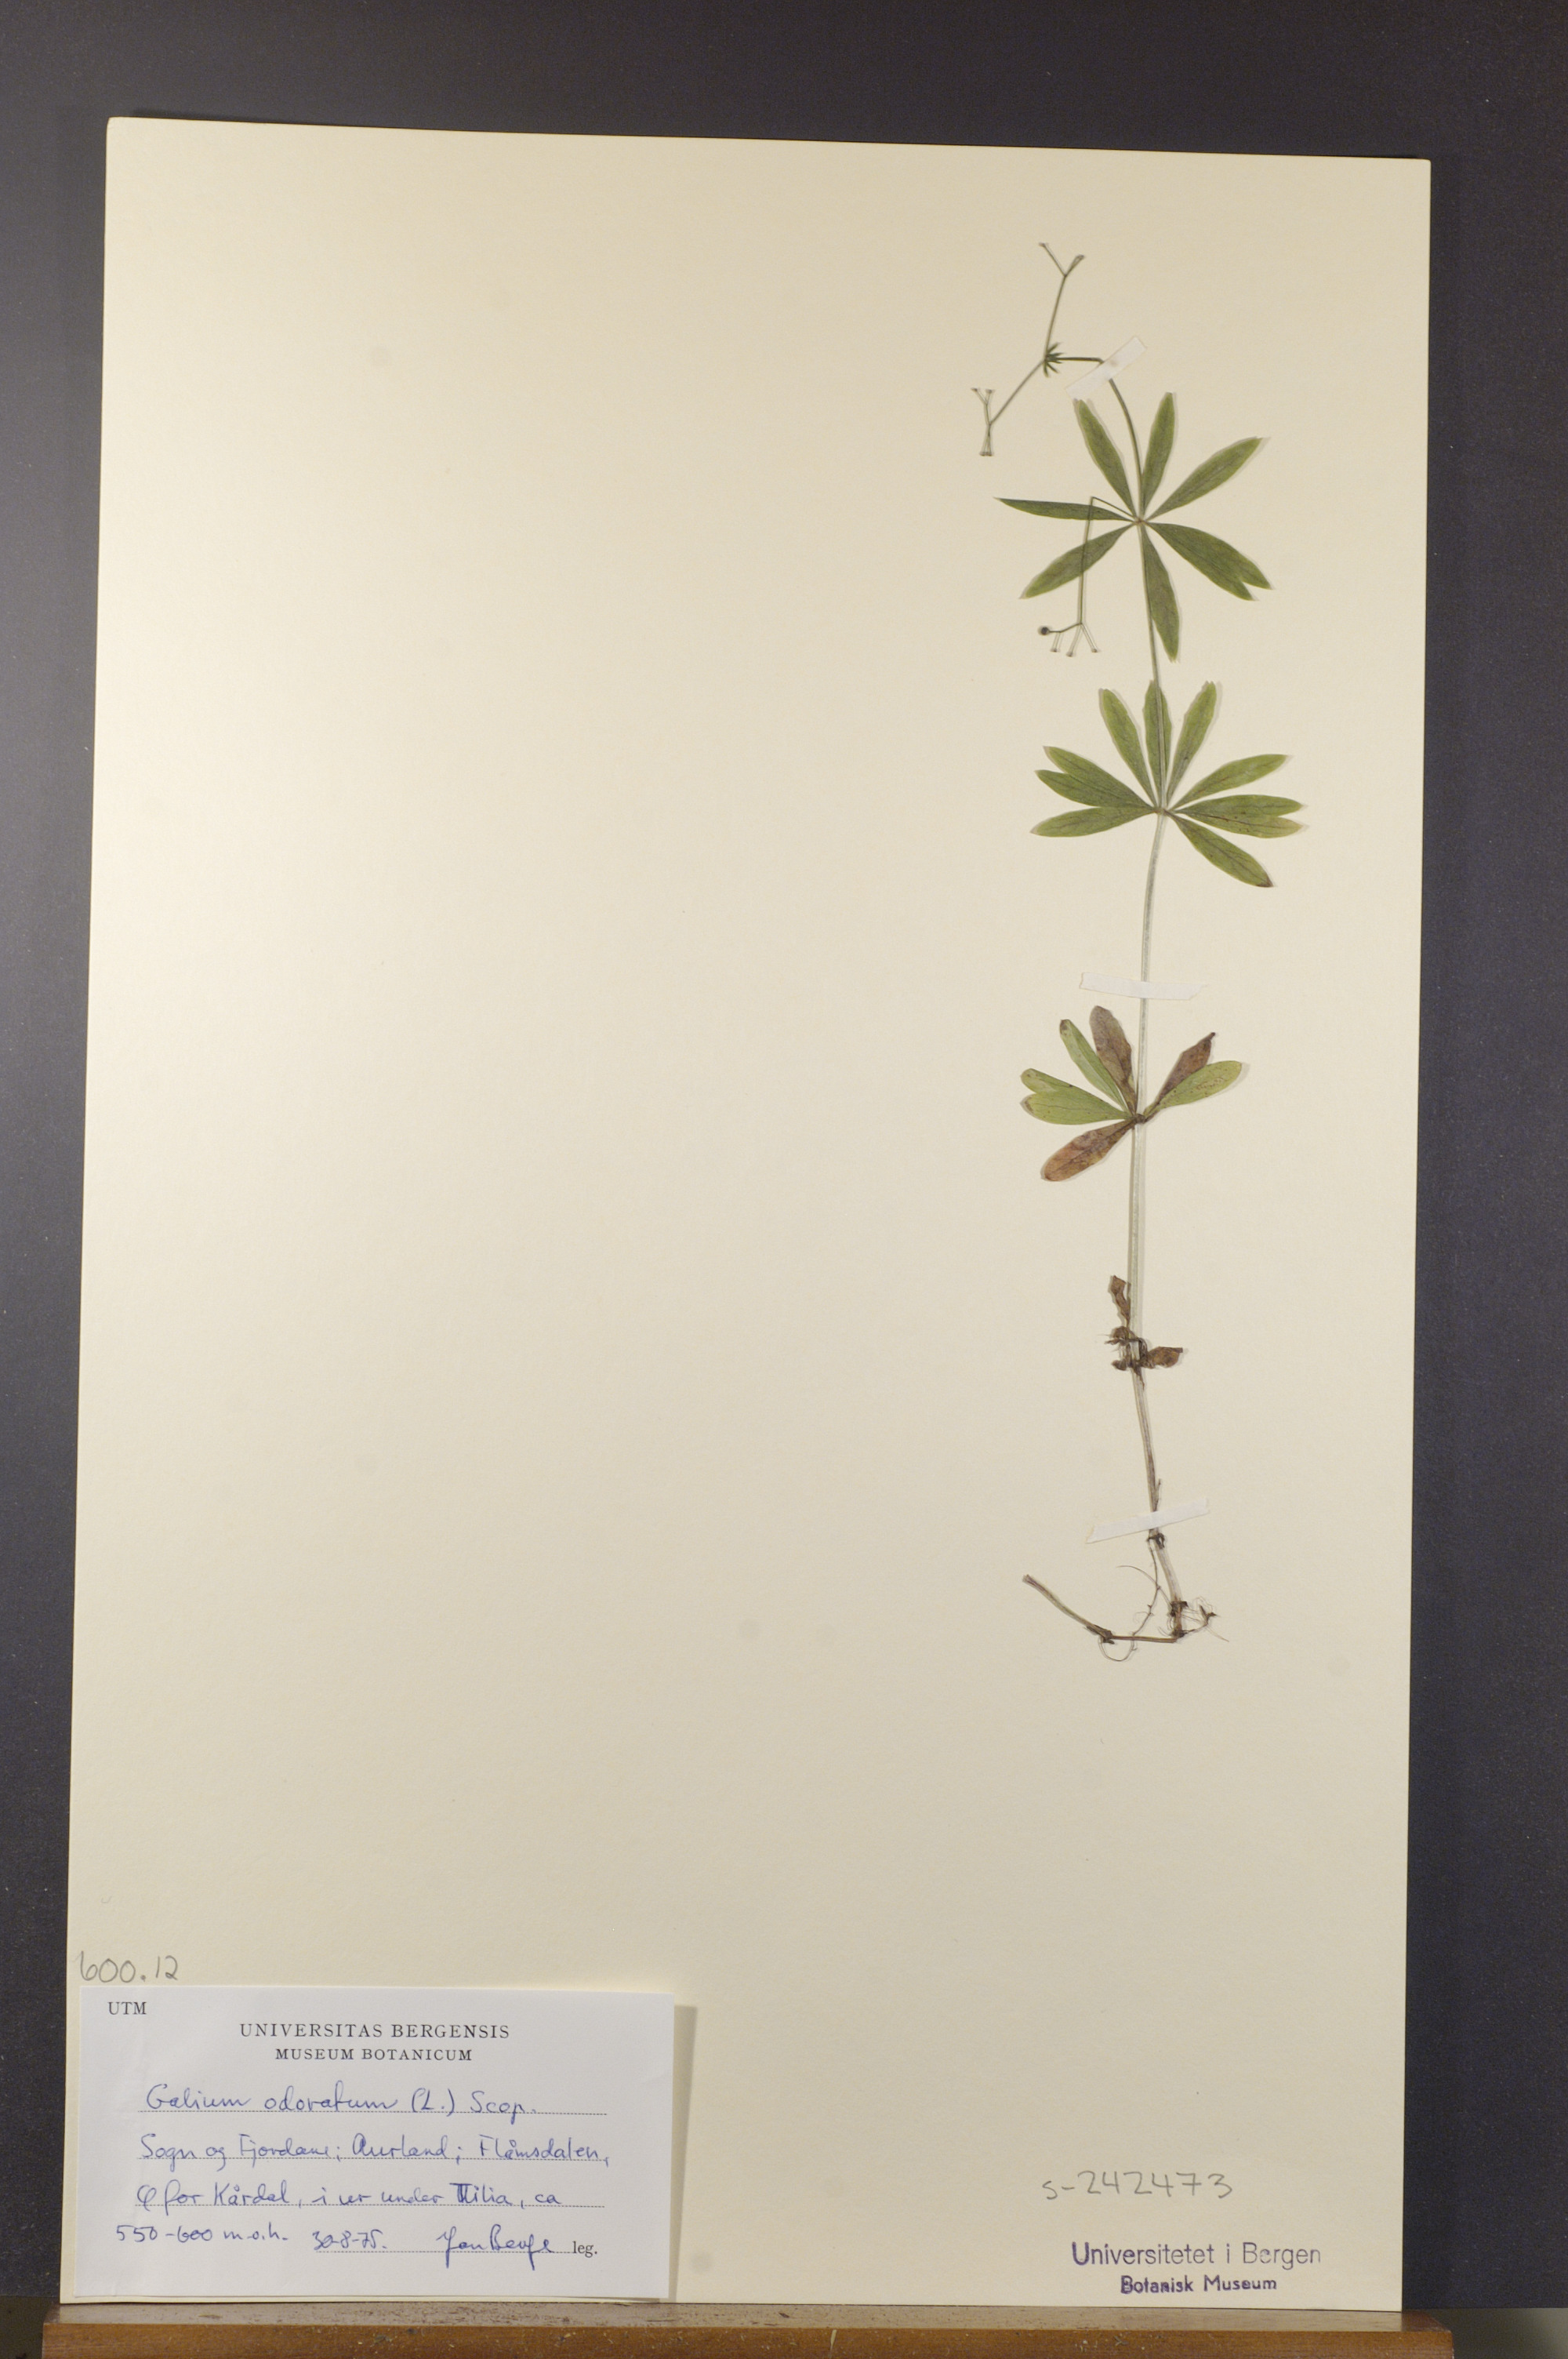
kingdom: Plantae
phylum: Tracheophyta
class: Magnoliopsida
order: Gentianales
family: Rubiaceae
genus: Galium
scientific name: Galium odoratum
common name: Sweet woodruff
